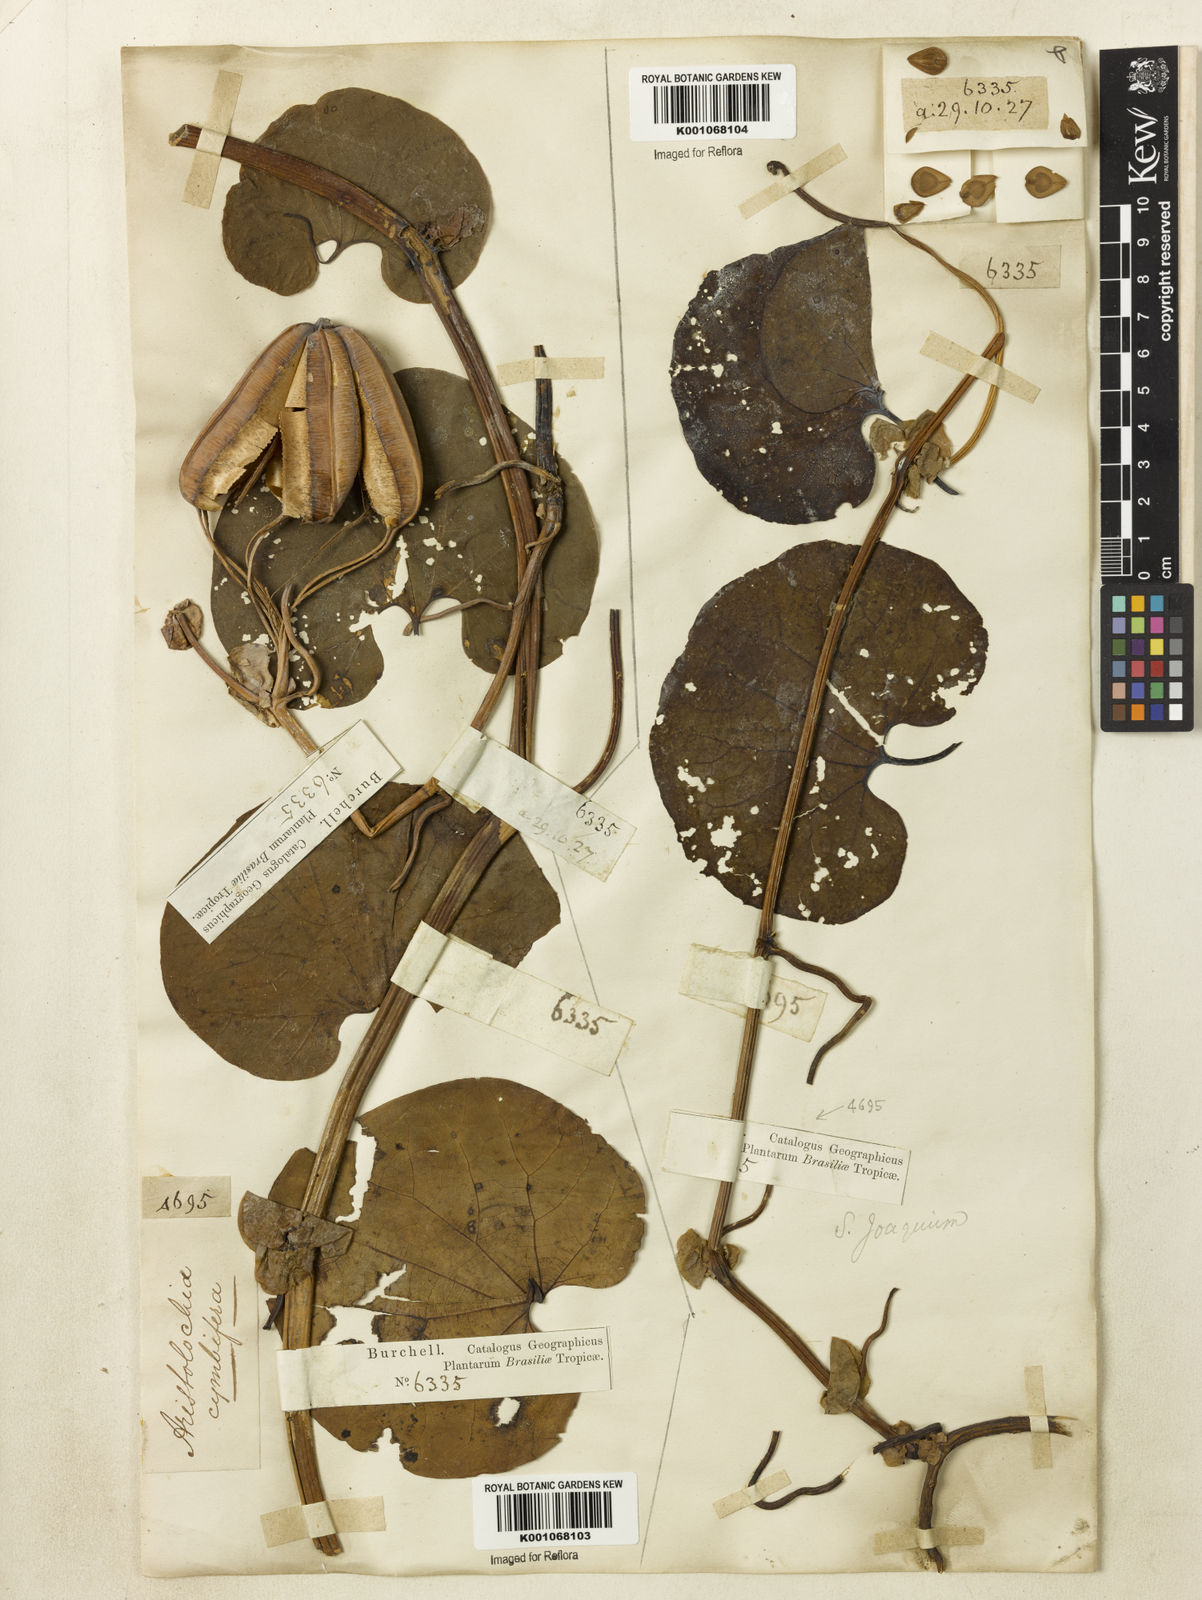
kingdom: Plantae
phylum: Tracheophyta
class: Magnoliopsida
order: Piperales
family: Aristolochiaceae
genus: Aristolochia
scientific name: Aristolochia cymbifera
